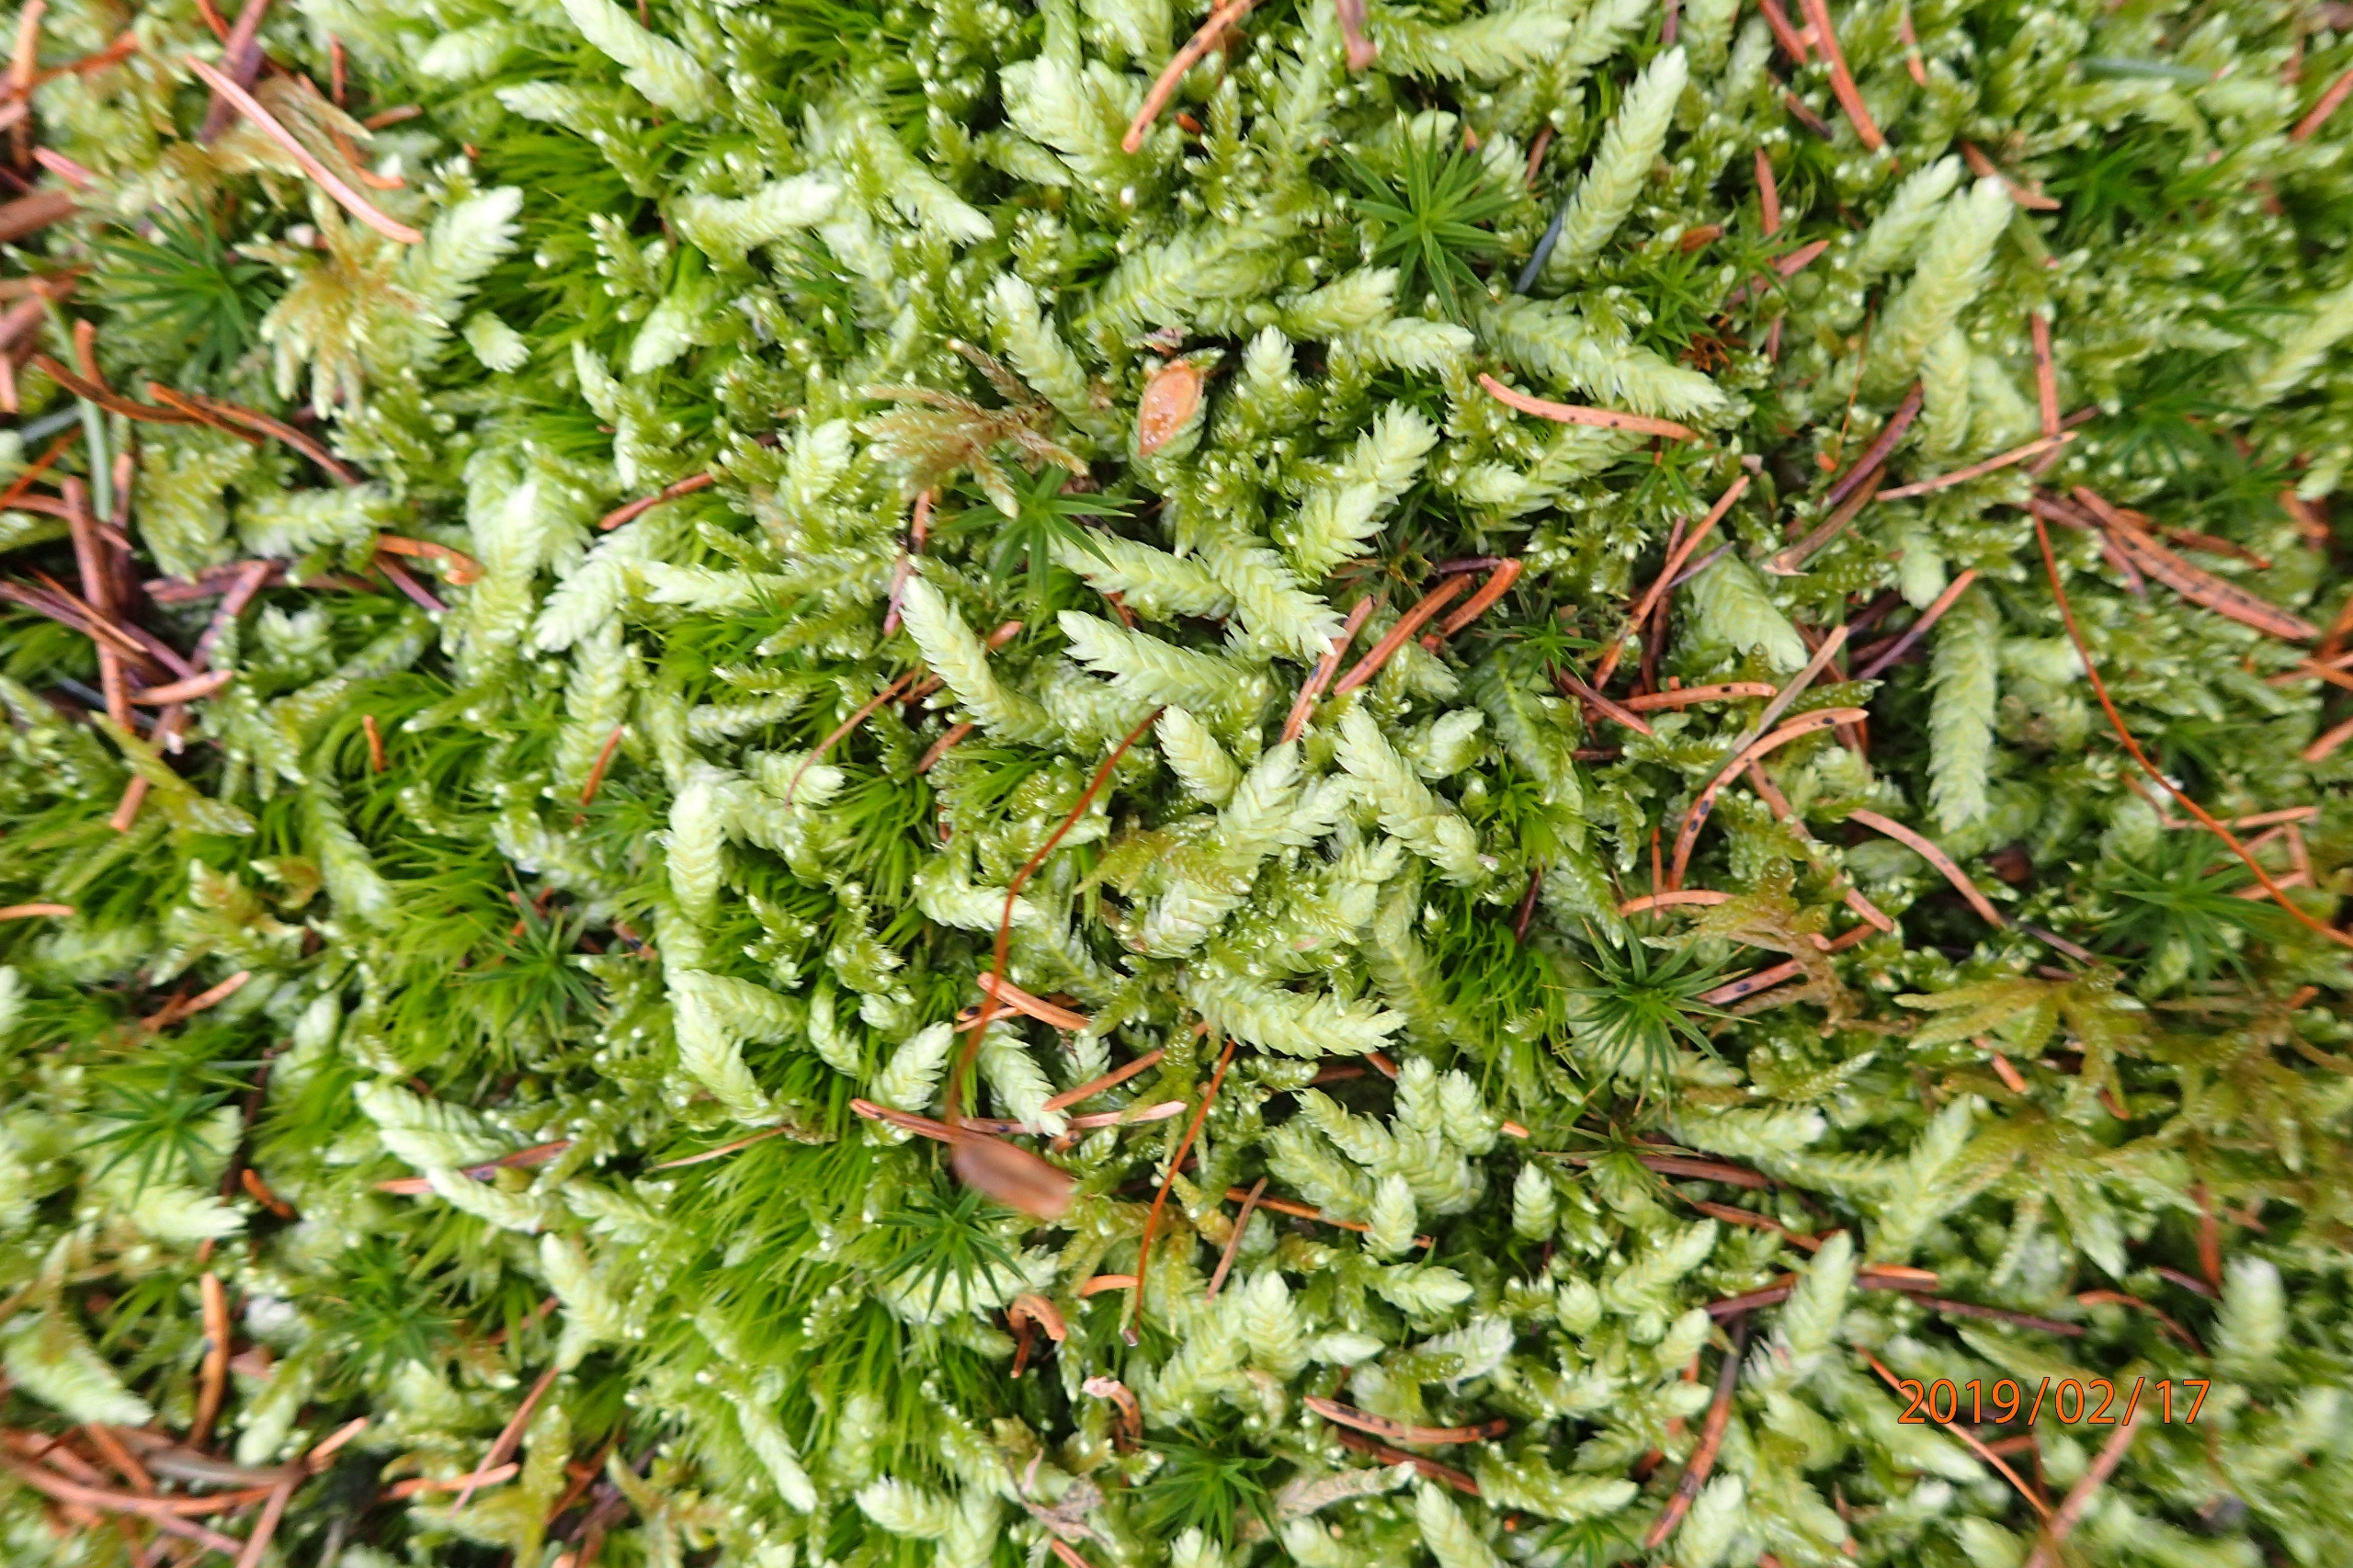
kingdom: Plantae
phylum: Bryophyta
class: Bryopsida
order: Hypnales
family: Plagiotheciaceae
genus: Plagiothecium
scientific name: Plagiothecium undulatum
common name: Bølget tæppemos
